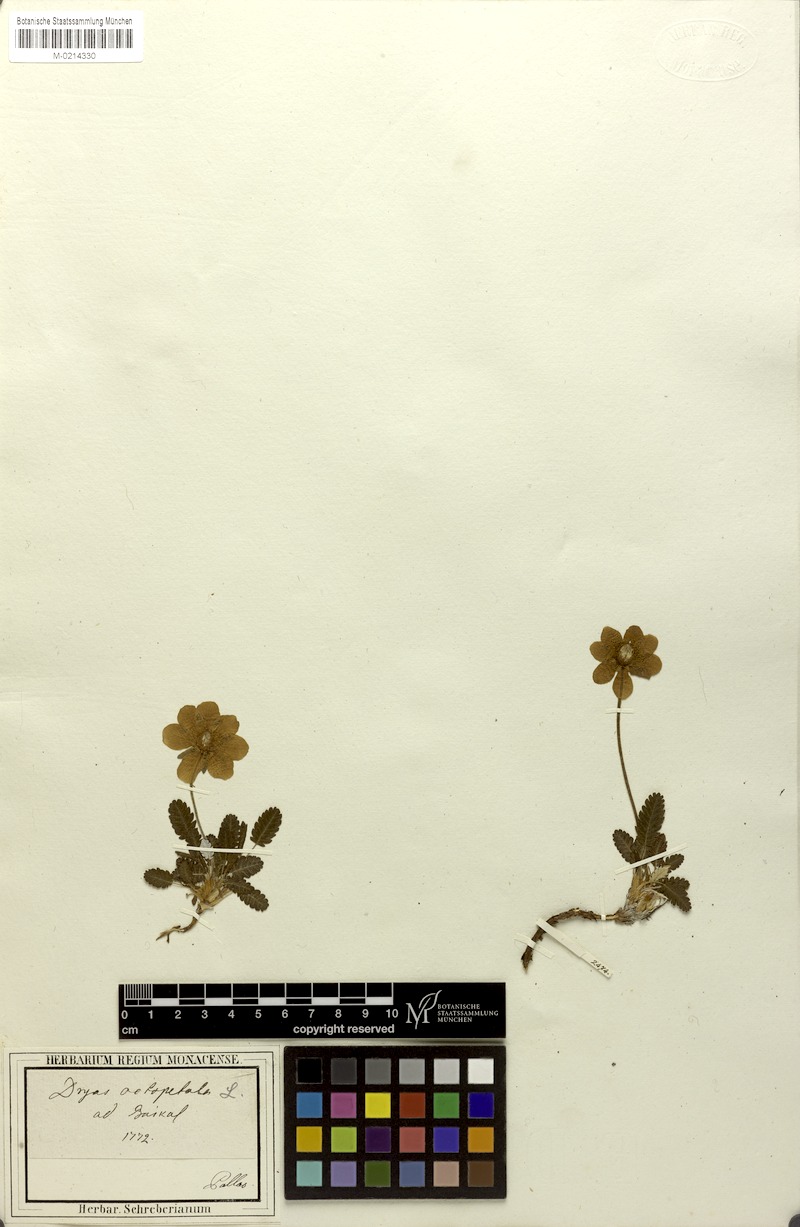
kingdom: Plantae
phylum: Tracheophyta
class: Magnoliopsida
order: Rosales
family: Rosaceae
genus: Dryas
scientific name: Dryas octopetala
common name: Eight-petal mountain-avens
